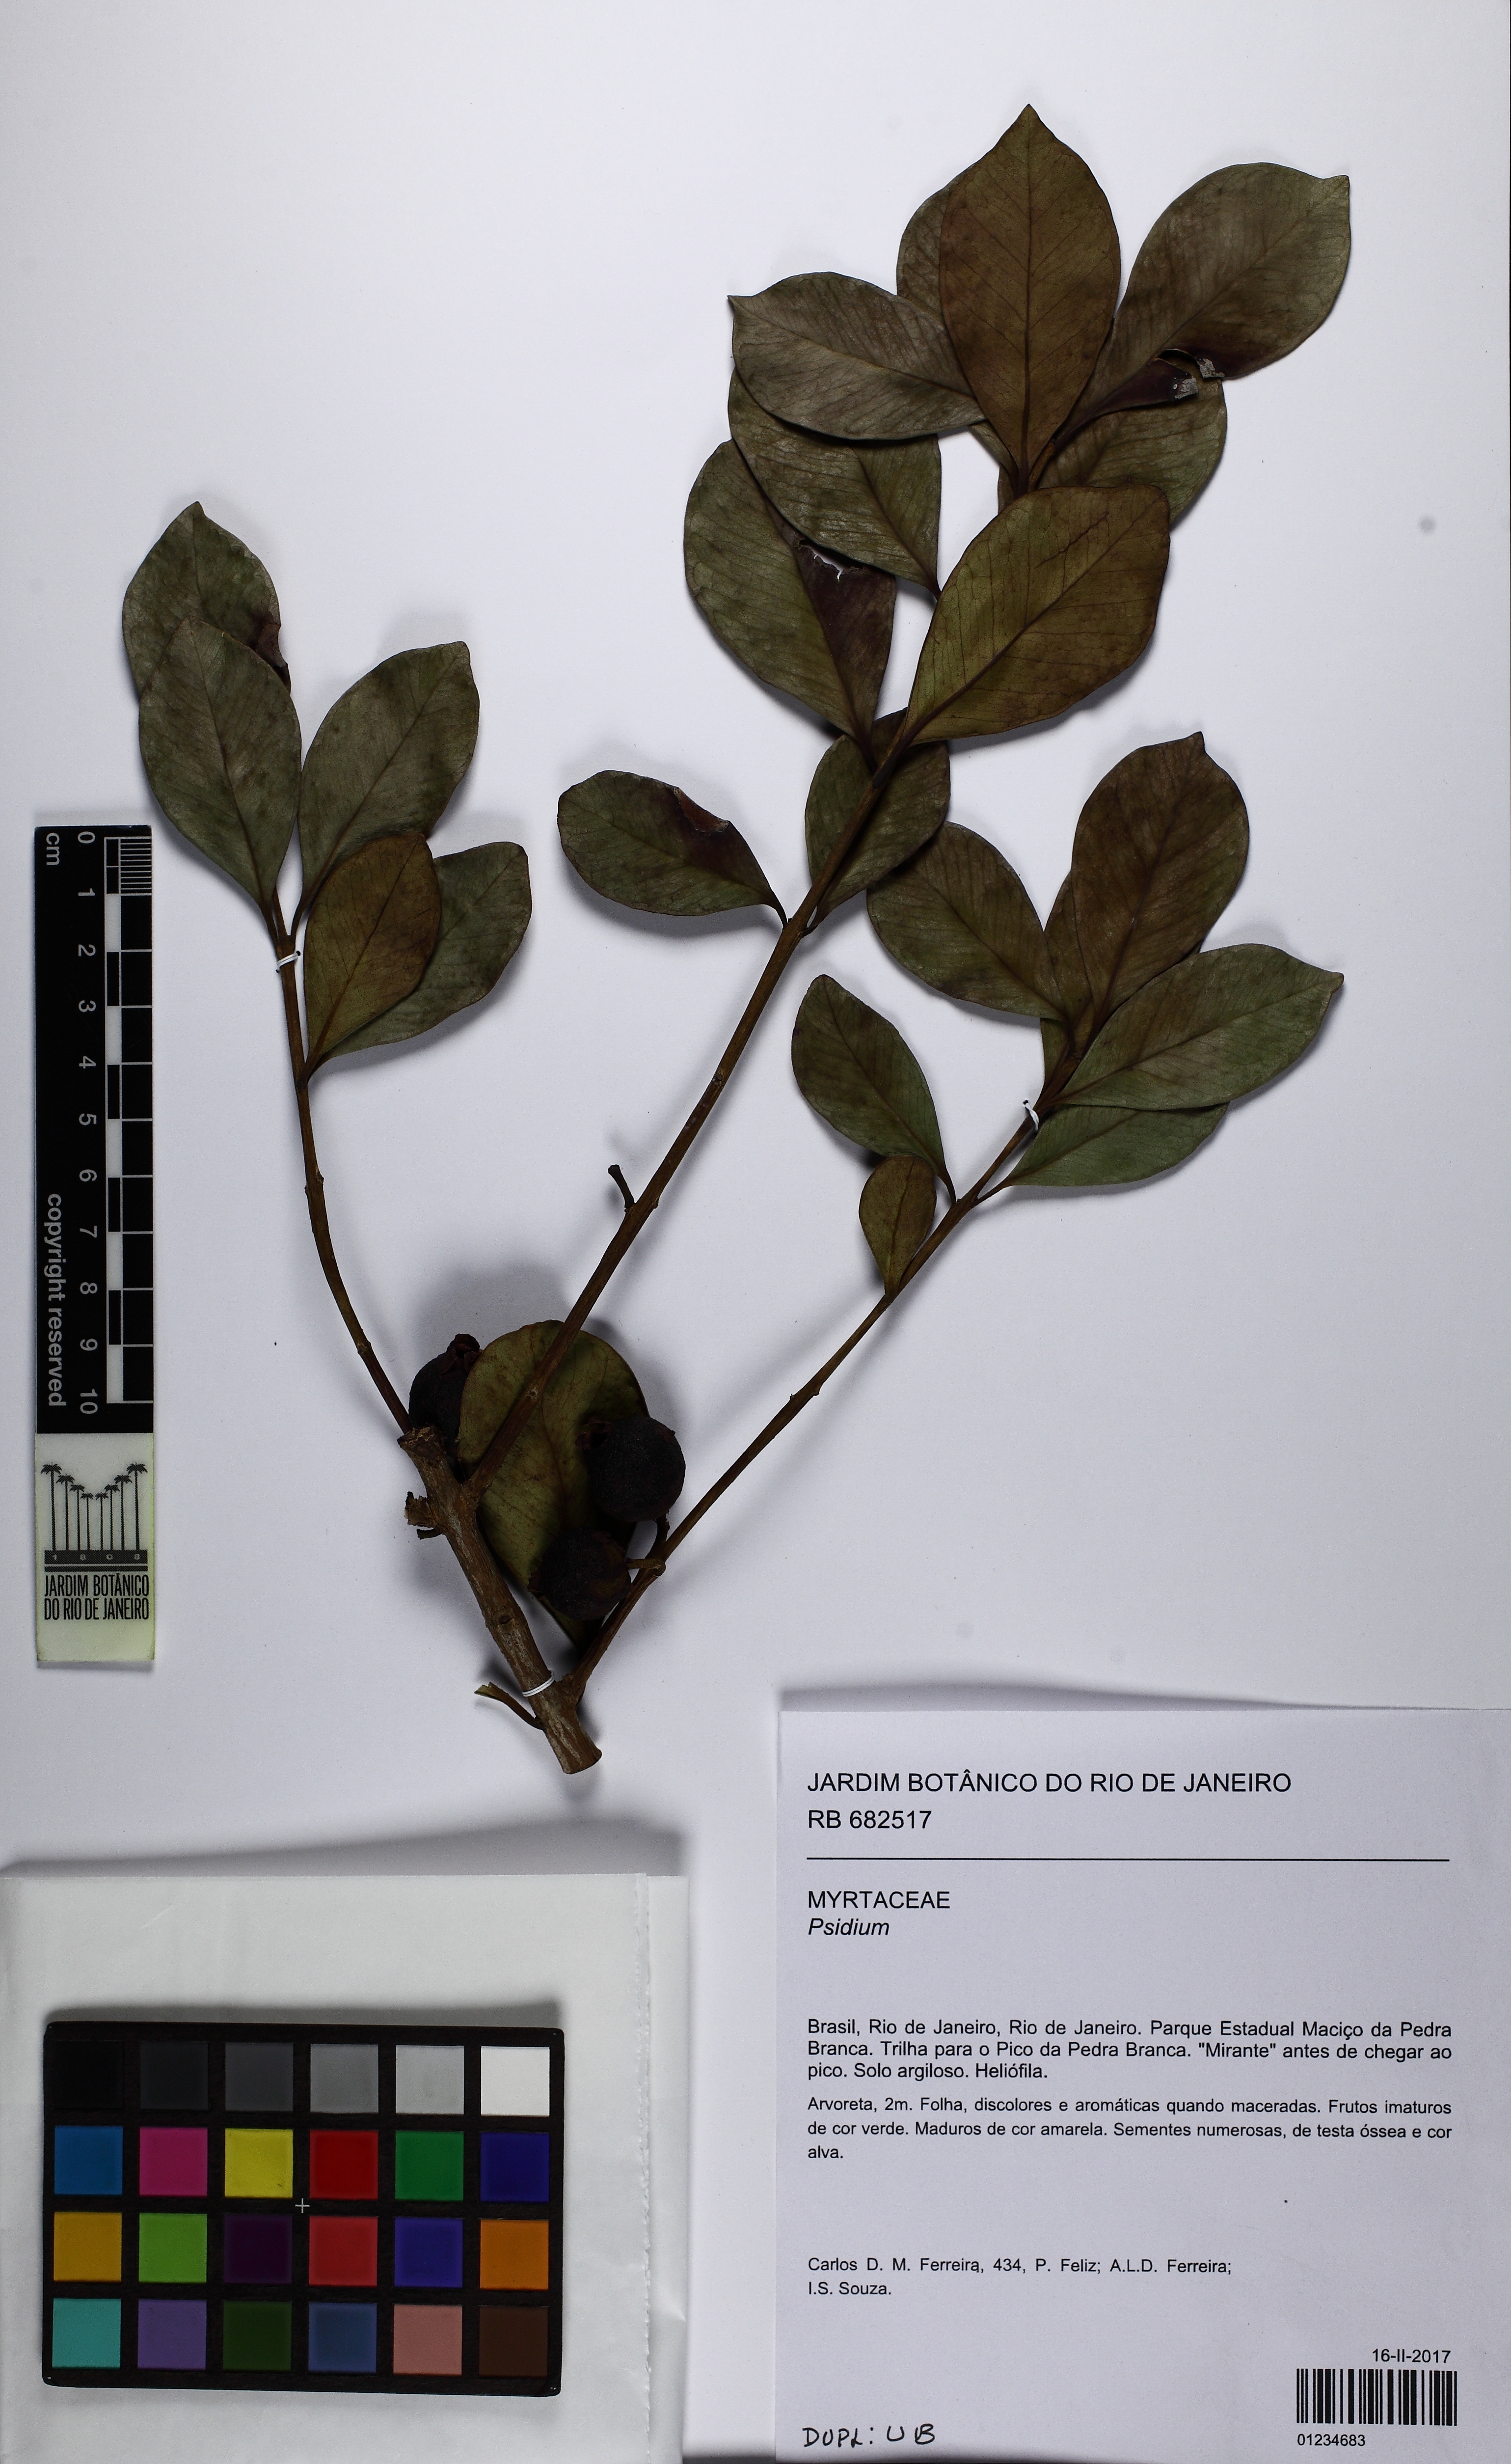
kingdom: Plantae
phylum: Tracheophyta
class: Magnoliopsida
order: Myrtales
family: Myrtaceae
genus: Psidium
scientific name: Psidium cattleianum
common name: Strawberry guava
